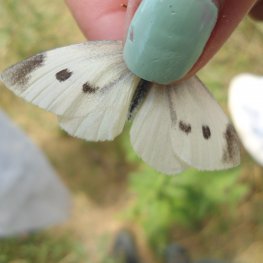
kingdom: Animalia
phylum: Arthropoda
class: Insecta
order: Lepidoptera
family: Pieridae
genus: Pieris
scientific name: Pieris rapae
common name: Cabbage White
